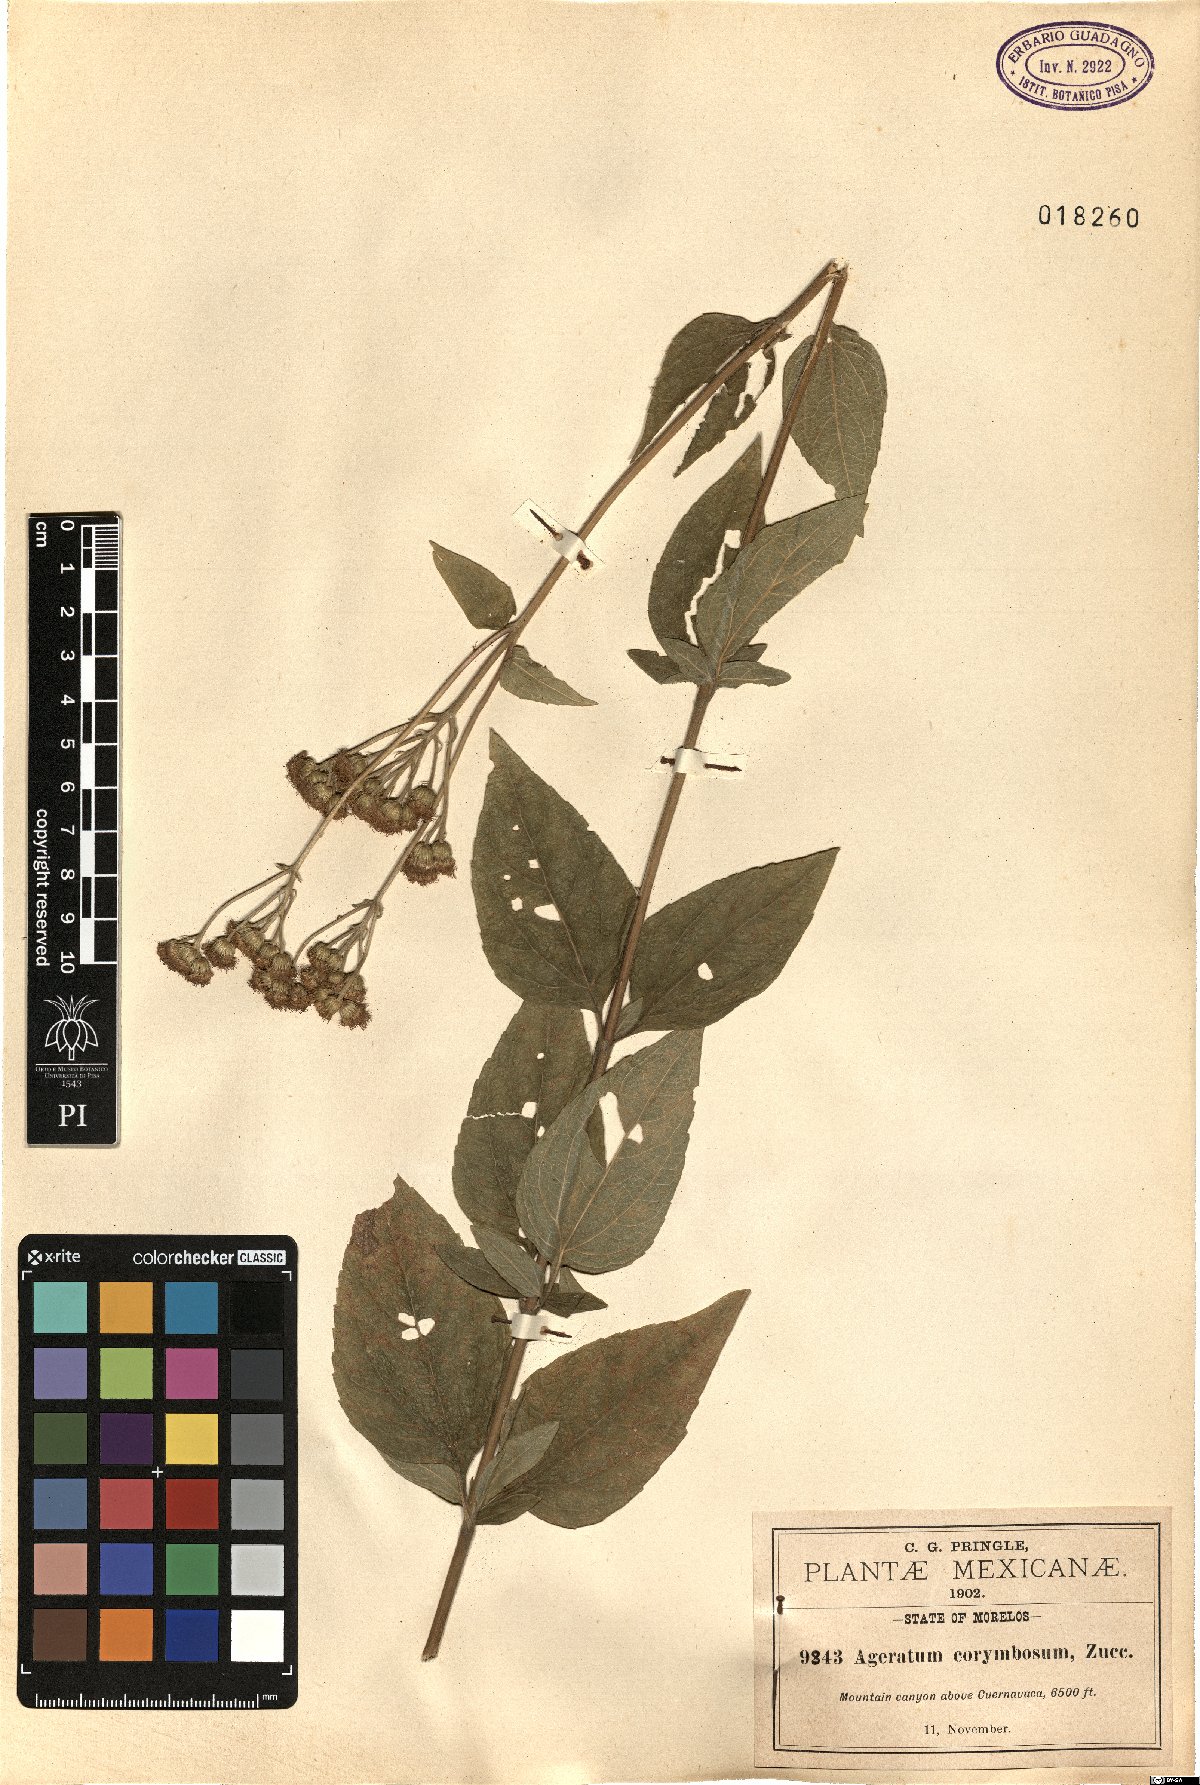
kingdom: Plantae
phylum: Tracheophyta
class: Magnoliopsida
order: Asterales
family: Asteraceae
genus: Ageratum
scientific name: Ageratum corymbosum
